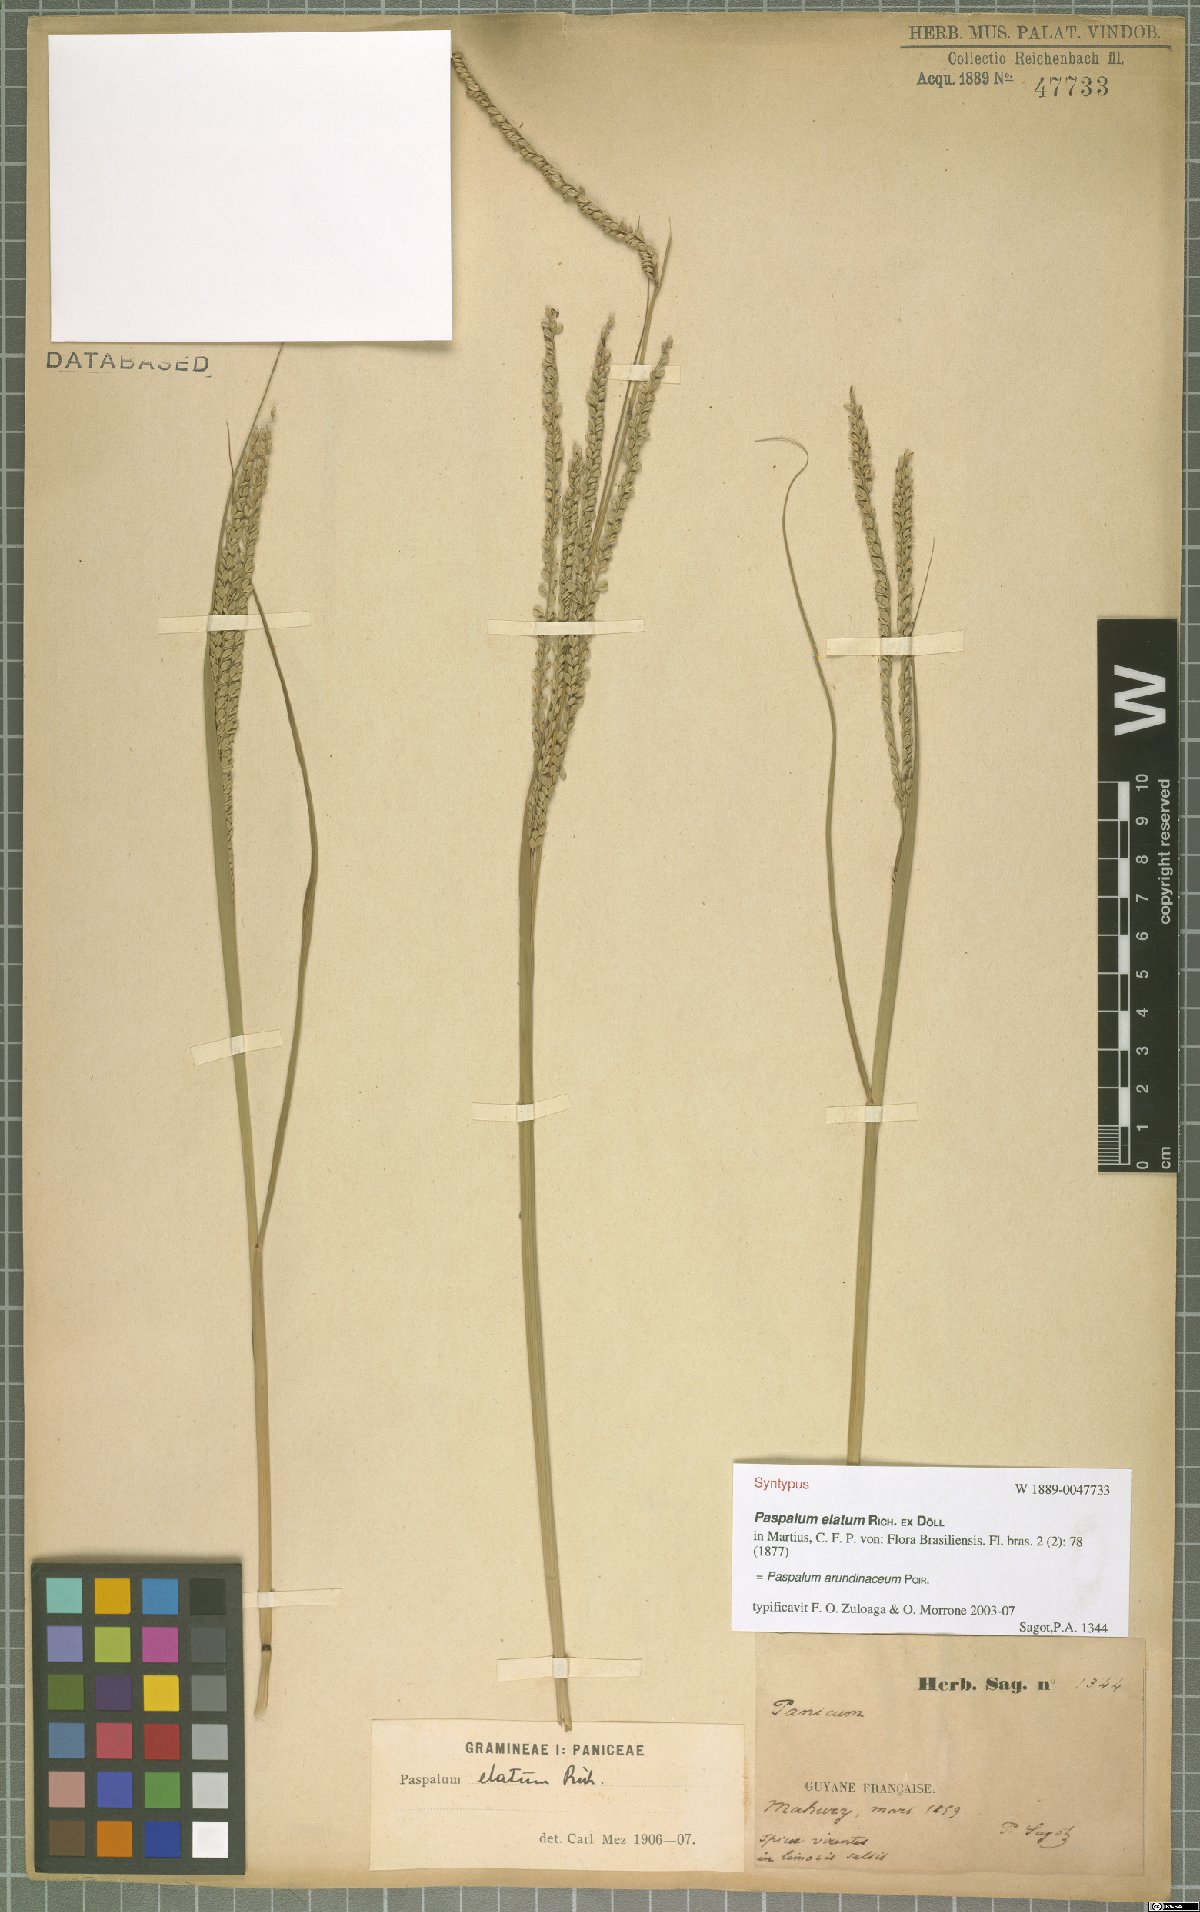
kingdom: Plantae
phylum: Tracheophyta
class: Liliopsida
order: Poales
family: Poaceae
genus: Paspalum
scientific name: Paspalum arundinaceum
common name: Thick ditch crowngrass
